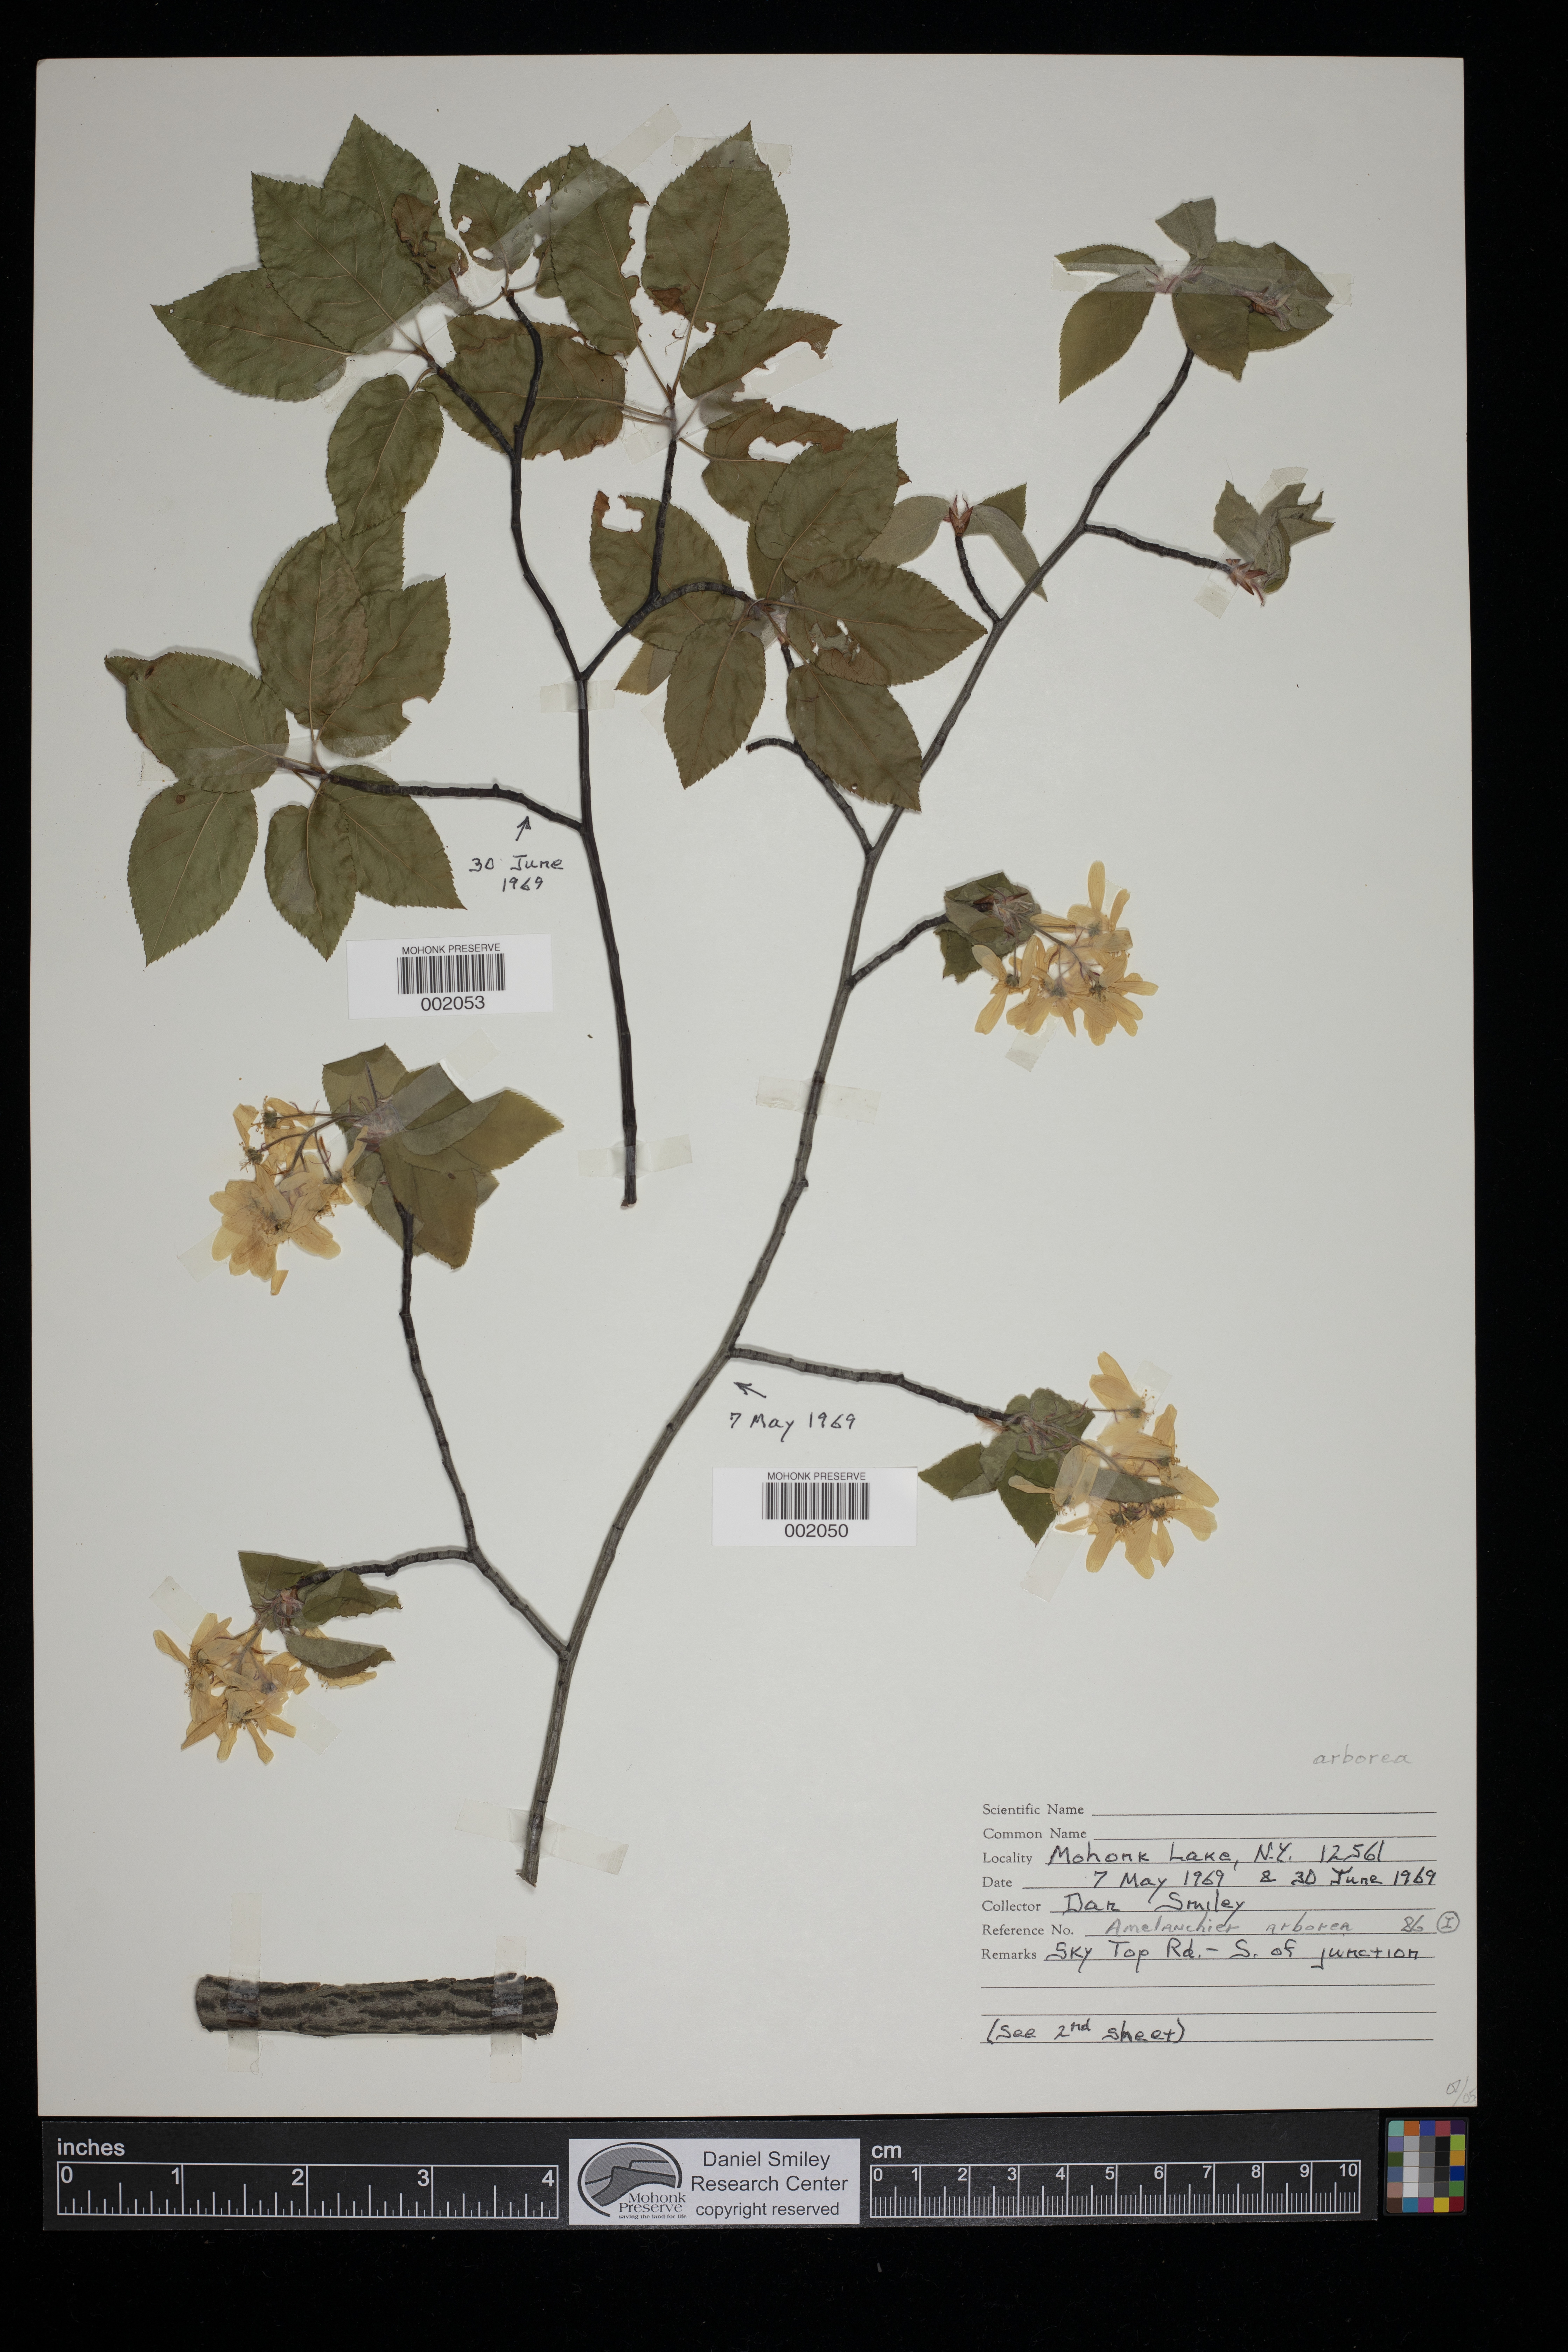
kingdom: Plantae
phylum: Tracheophyta
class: Magnoliopsida
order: Rosales
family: Rosaceae
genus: Amelanchier
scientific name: Amelanchier arborea
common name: Downy serviceberry
